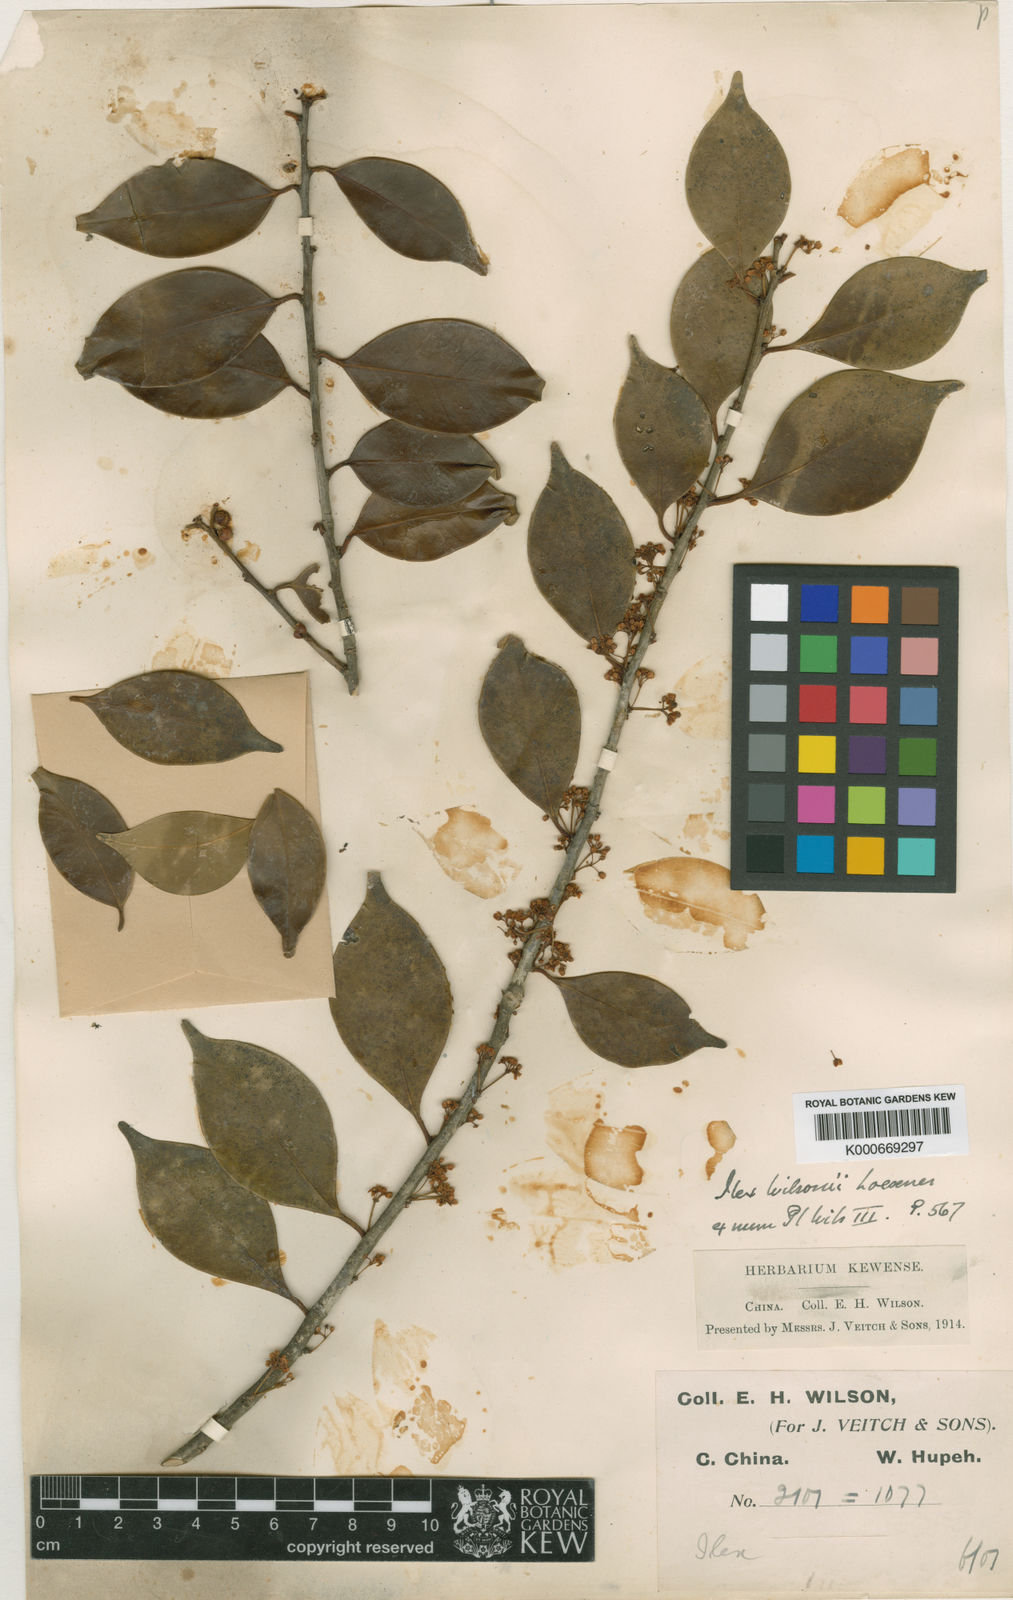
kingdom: Plantae
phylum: Tracheophyta
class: Magnoliopsida
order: Aquifoliales
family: Aquifoliaceae
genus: Ilex
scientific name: Ilex wilsonii
